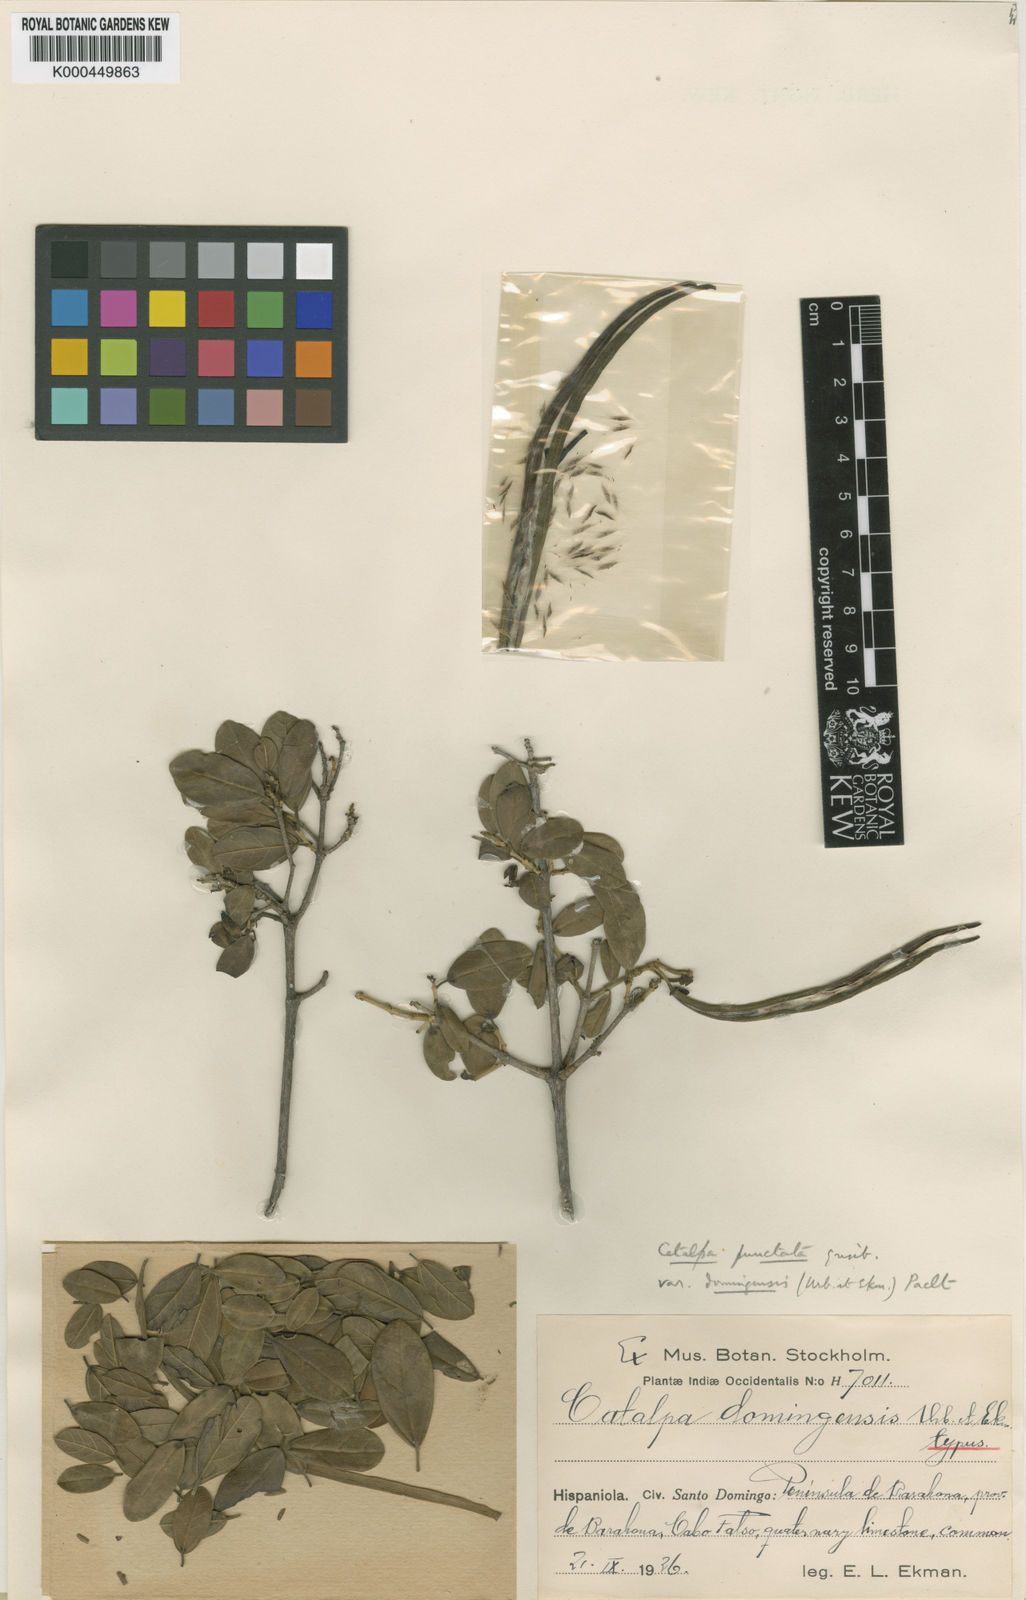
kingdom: Plantae
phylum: Tracheophyta
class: Magnoliopsida
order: Lamiales
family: Bignoniaceae
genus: Catalpa
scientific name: Catalpa macrocarpa
